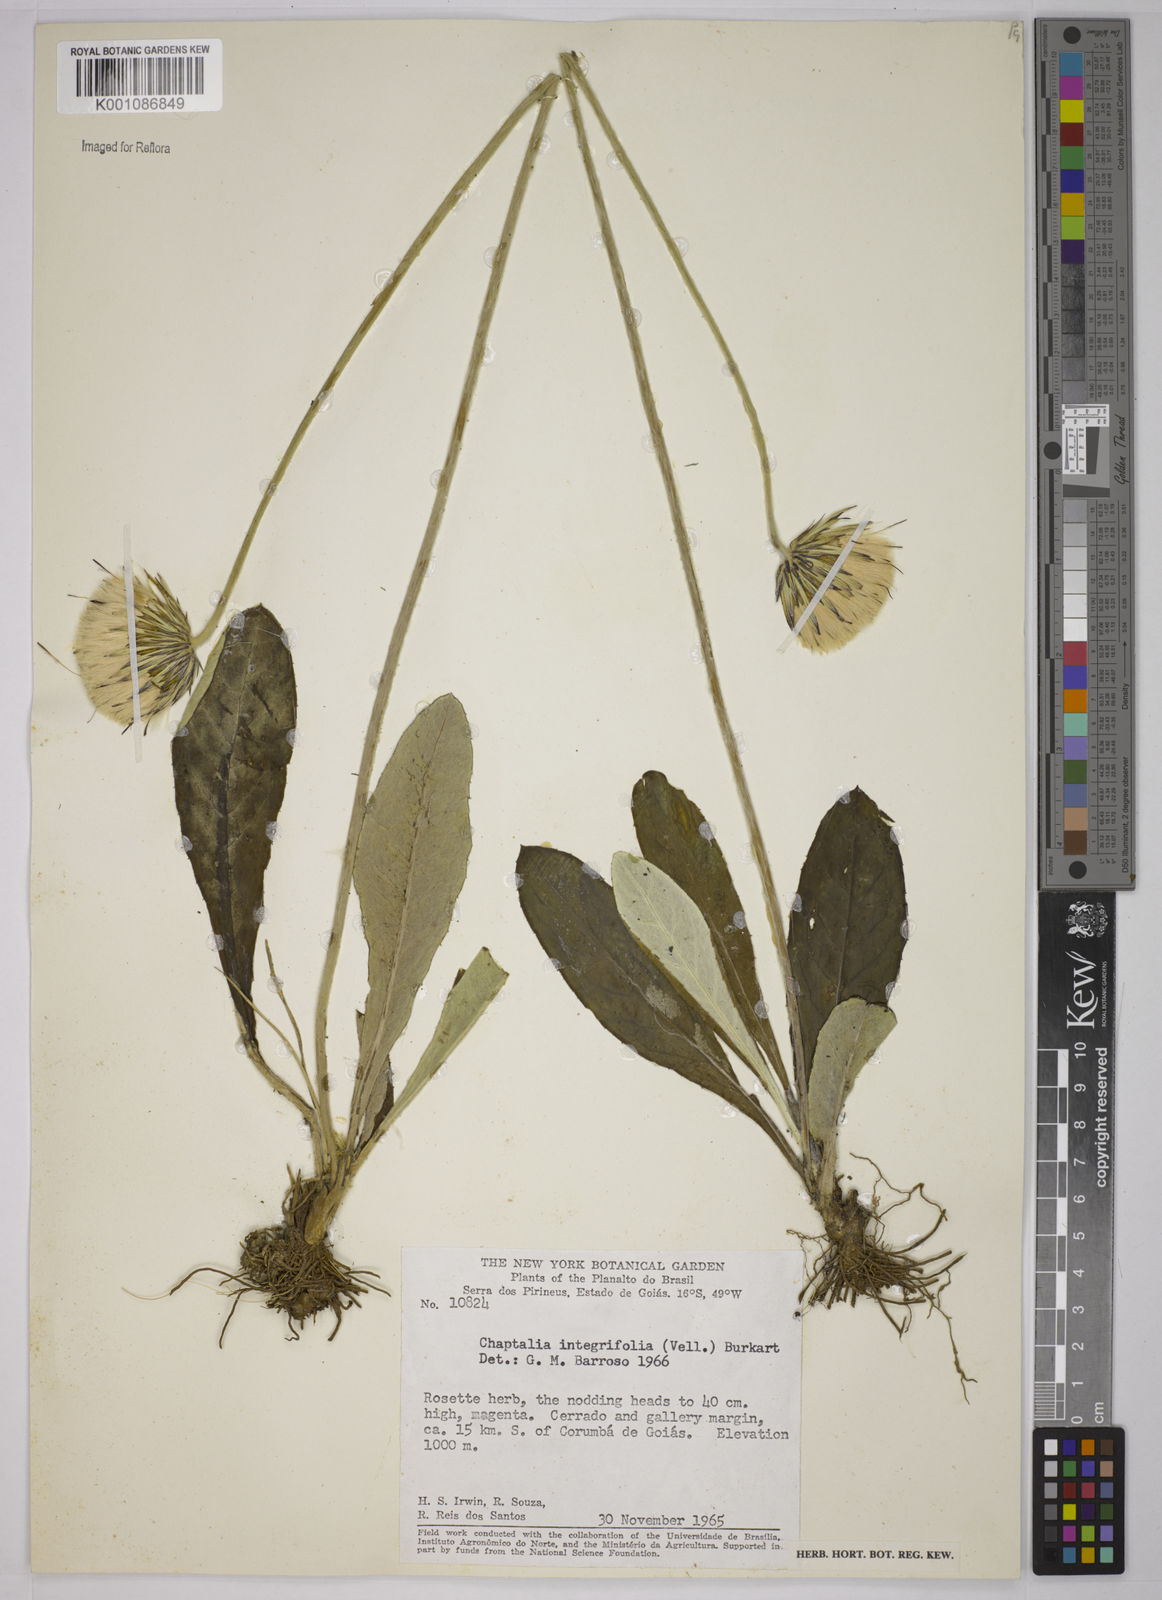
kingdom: Plantae
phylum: Tracheophyta
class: Magnoliopsida
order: Asterales
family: Asteraceae
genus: Chaptalia
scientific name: Chaptalia integerrima
